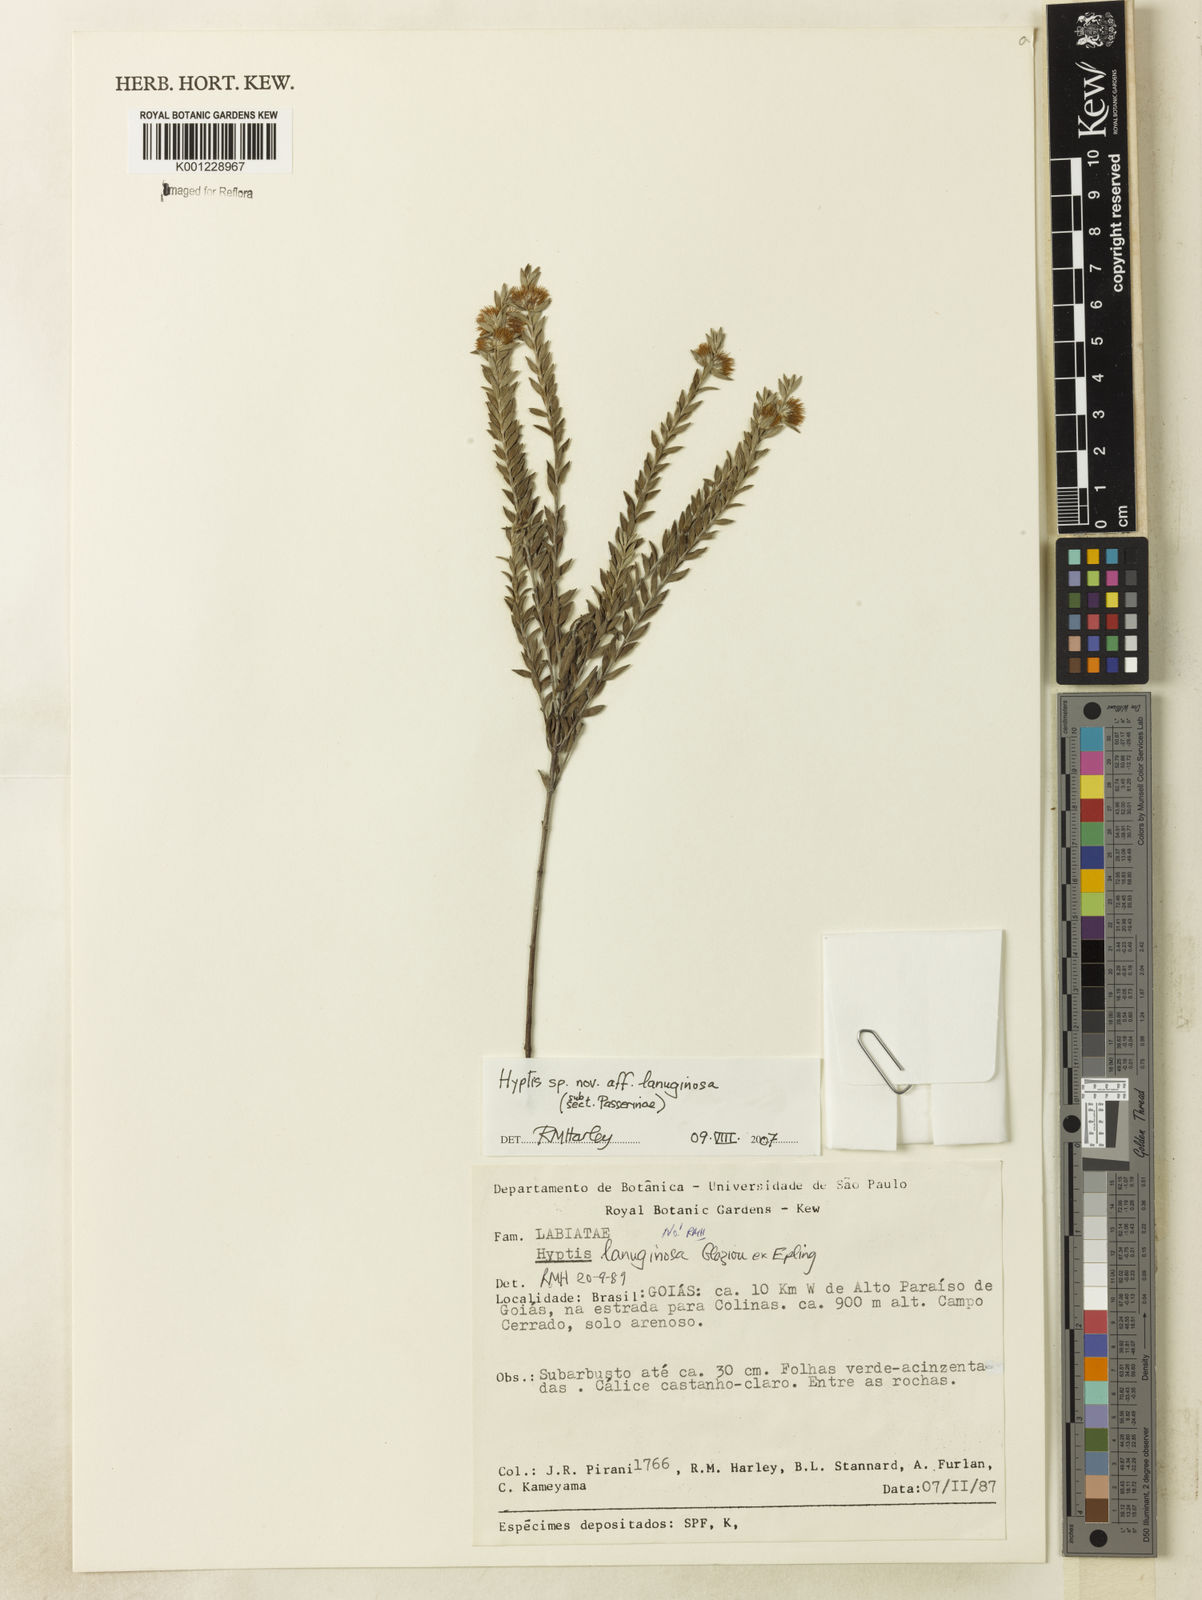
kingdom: Plantae
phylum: Tracheophyta
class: Magnoliopsida
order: Lamiales
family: Lamiaceae
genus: Hyptis
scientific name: Hyptis kramerioides
